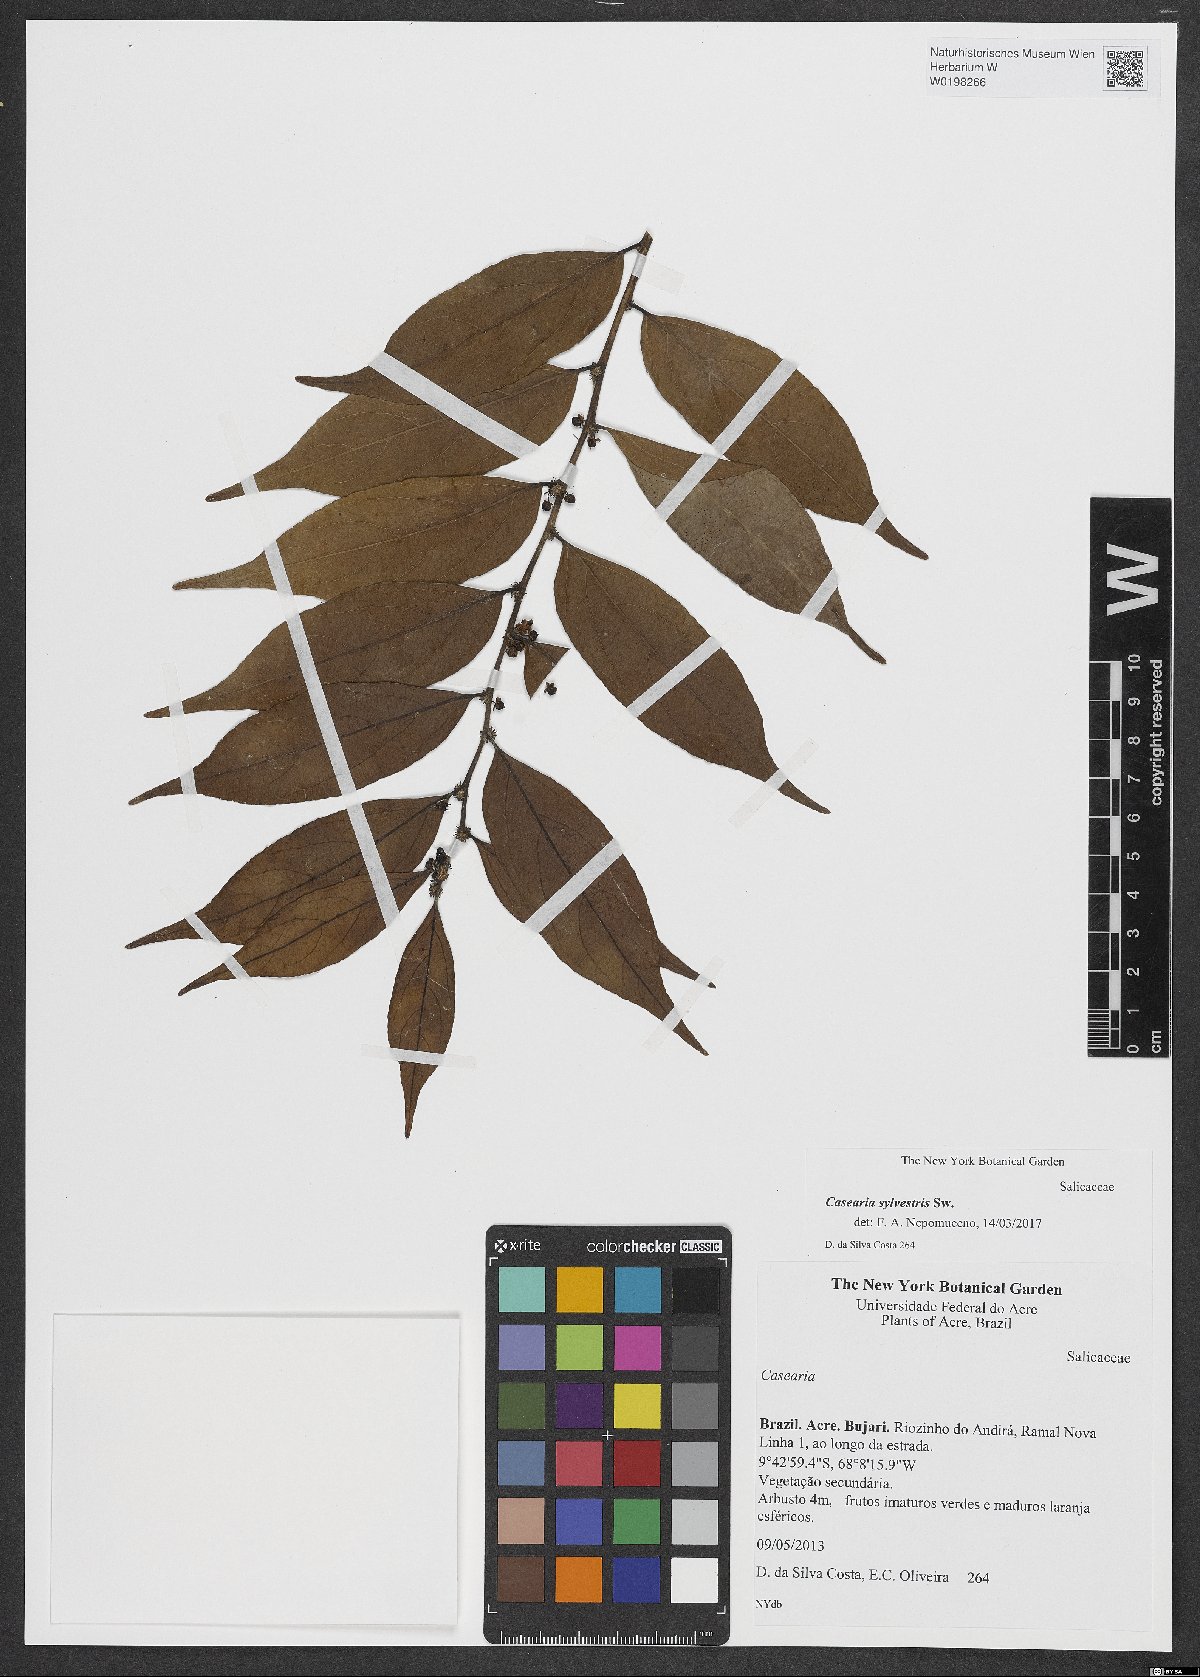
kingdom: Plantae
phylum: Tracheophyta
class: Magnoliopsida
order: Malpighiales
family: Salicaceae
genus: Casearia
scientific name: Casearia sylvestris
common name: Wild sage
